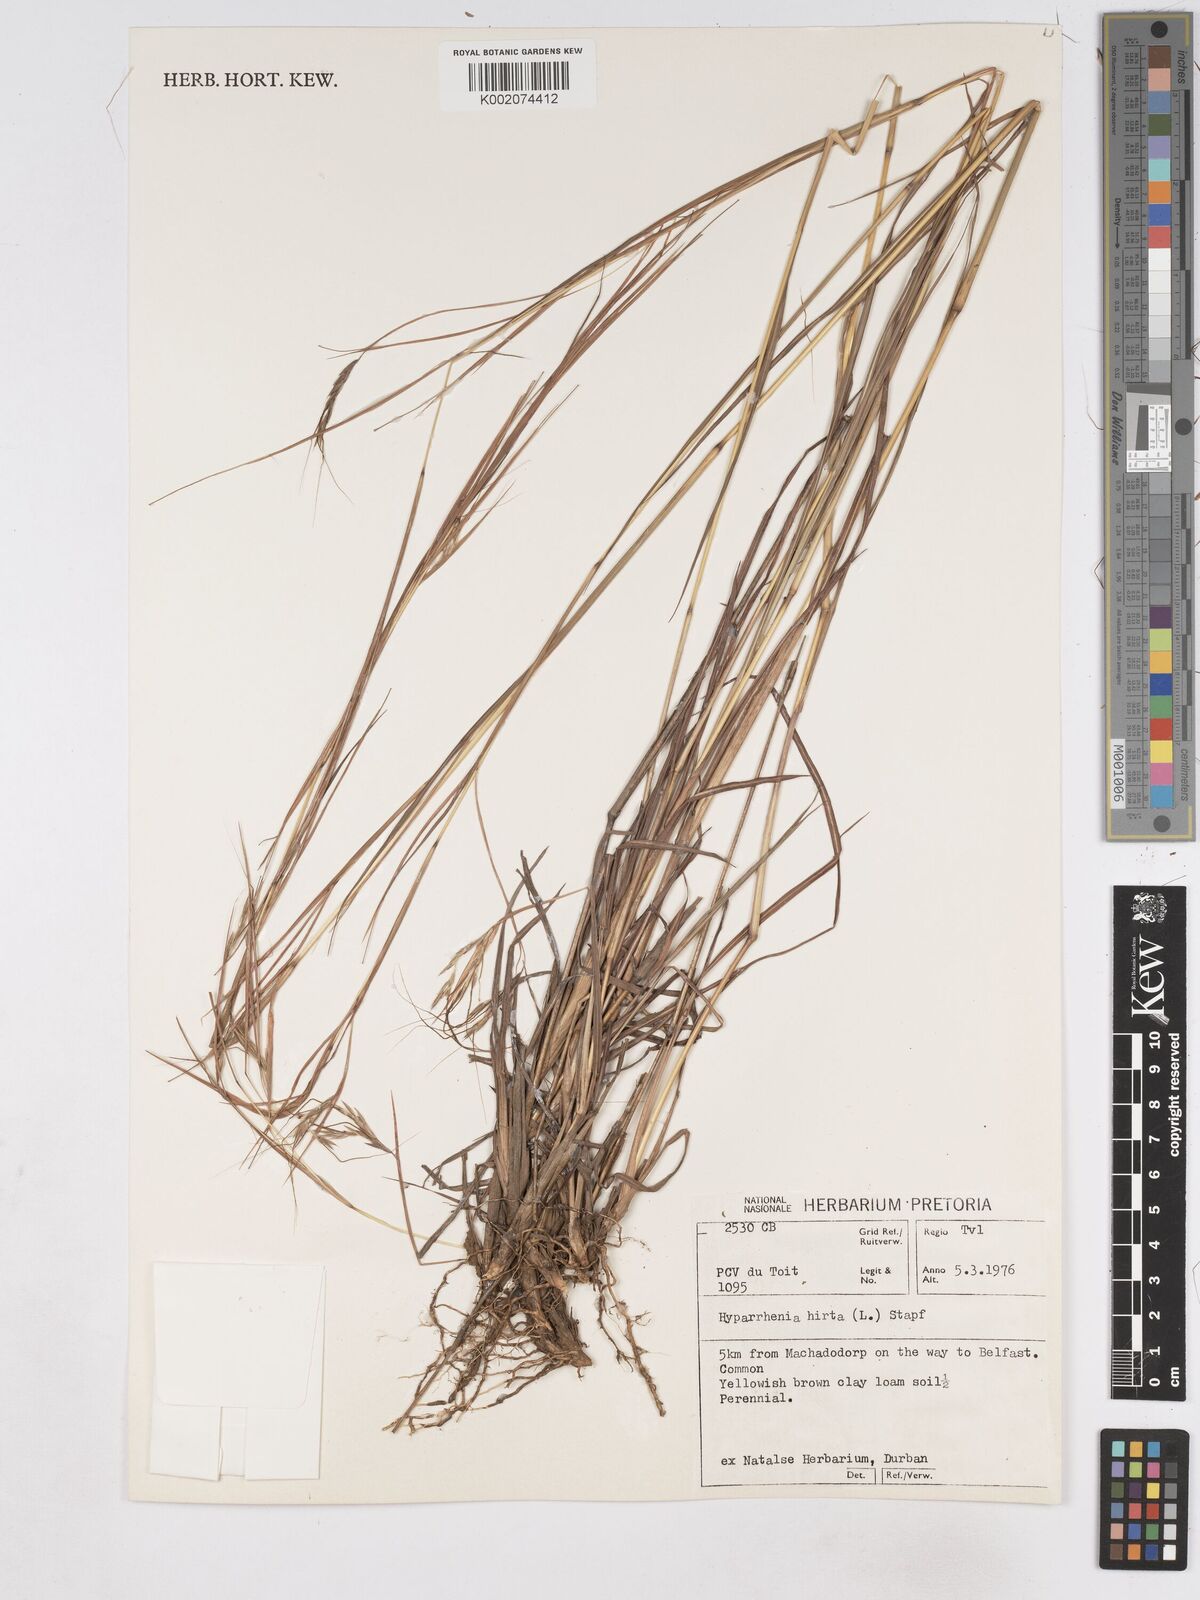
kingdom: Plantae
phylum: Tracheophyta
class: Liliopsida
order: Poales
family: Poaceae
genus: Hyparrhenia
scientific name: Hyparrhenia hirta
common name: Thatching grass
